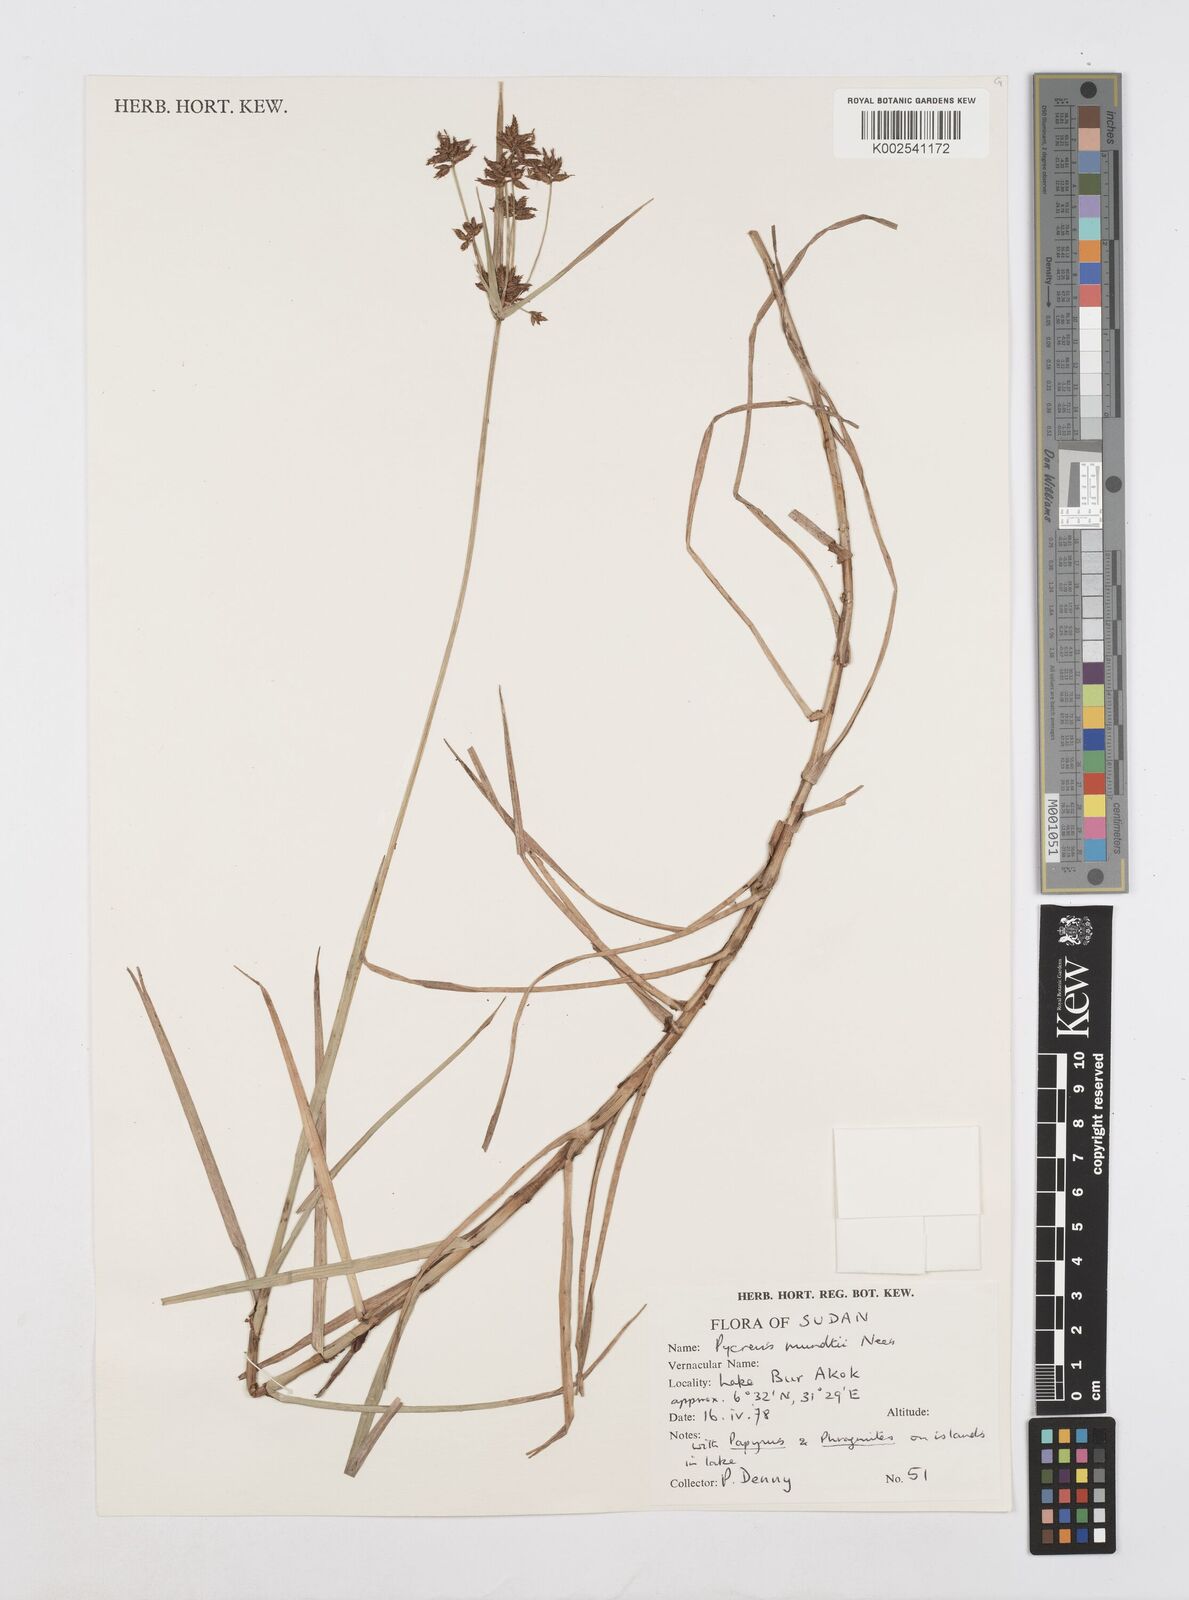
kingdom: Plantae
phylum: Tracheophyta
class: Liliopsida
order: Poales
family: Cyperaceae
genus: Cyperus
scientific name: Cyperus mundii
